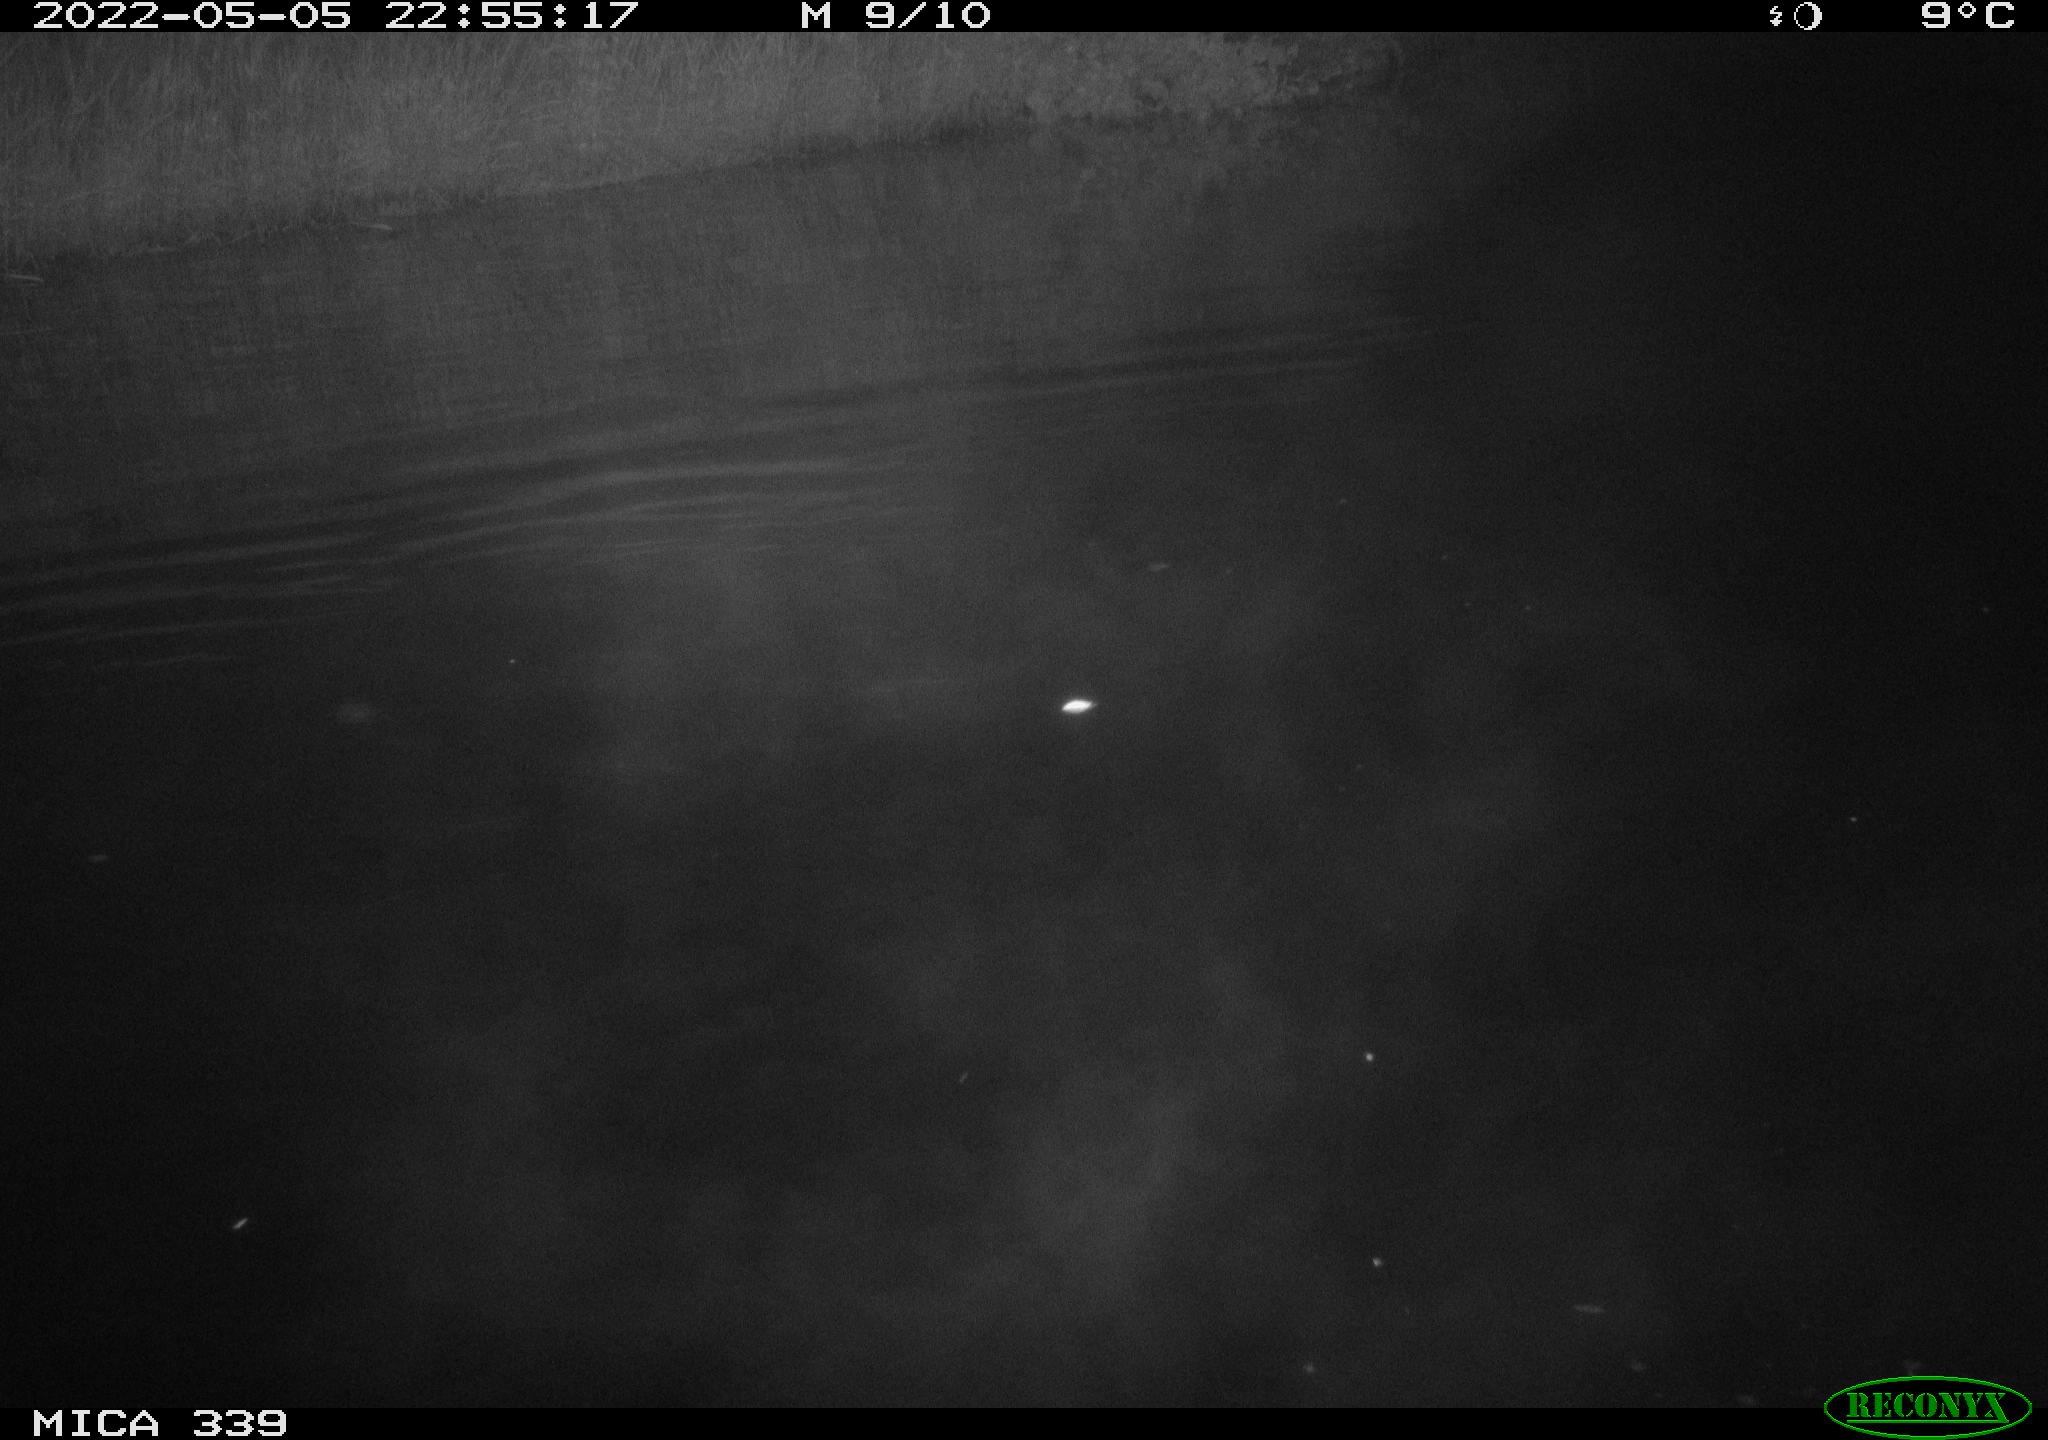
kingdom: Animalia
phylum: Chordata
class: Aves
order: Anseriformes
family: Anatidae
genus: Anas
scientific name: Anas platyrhynchos
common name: Mallard
